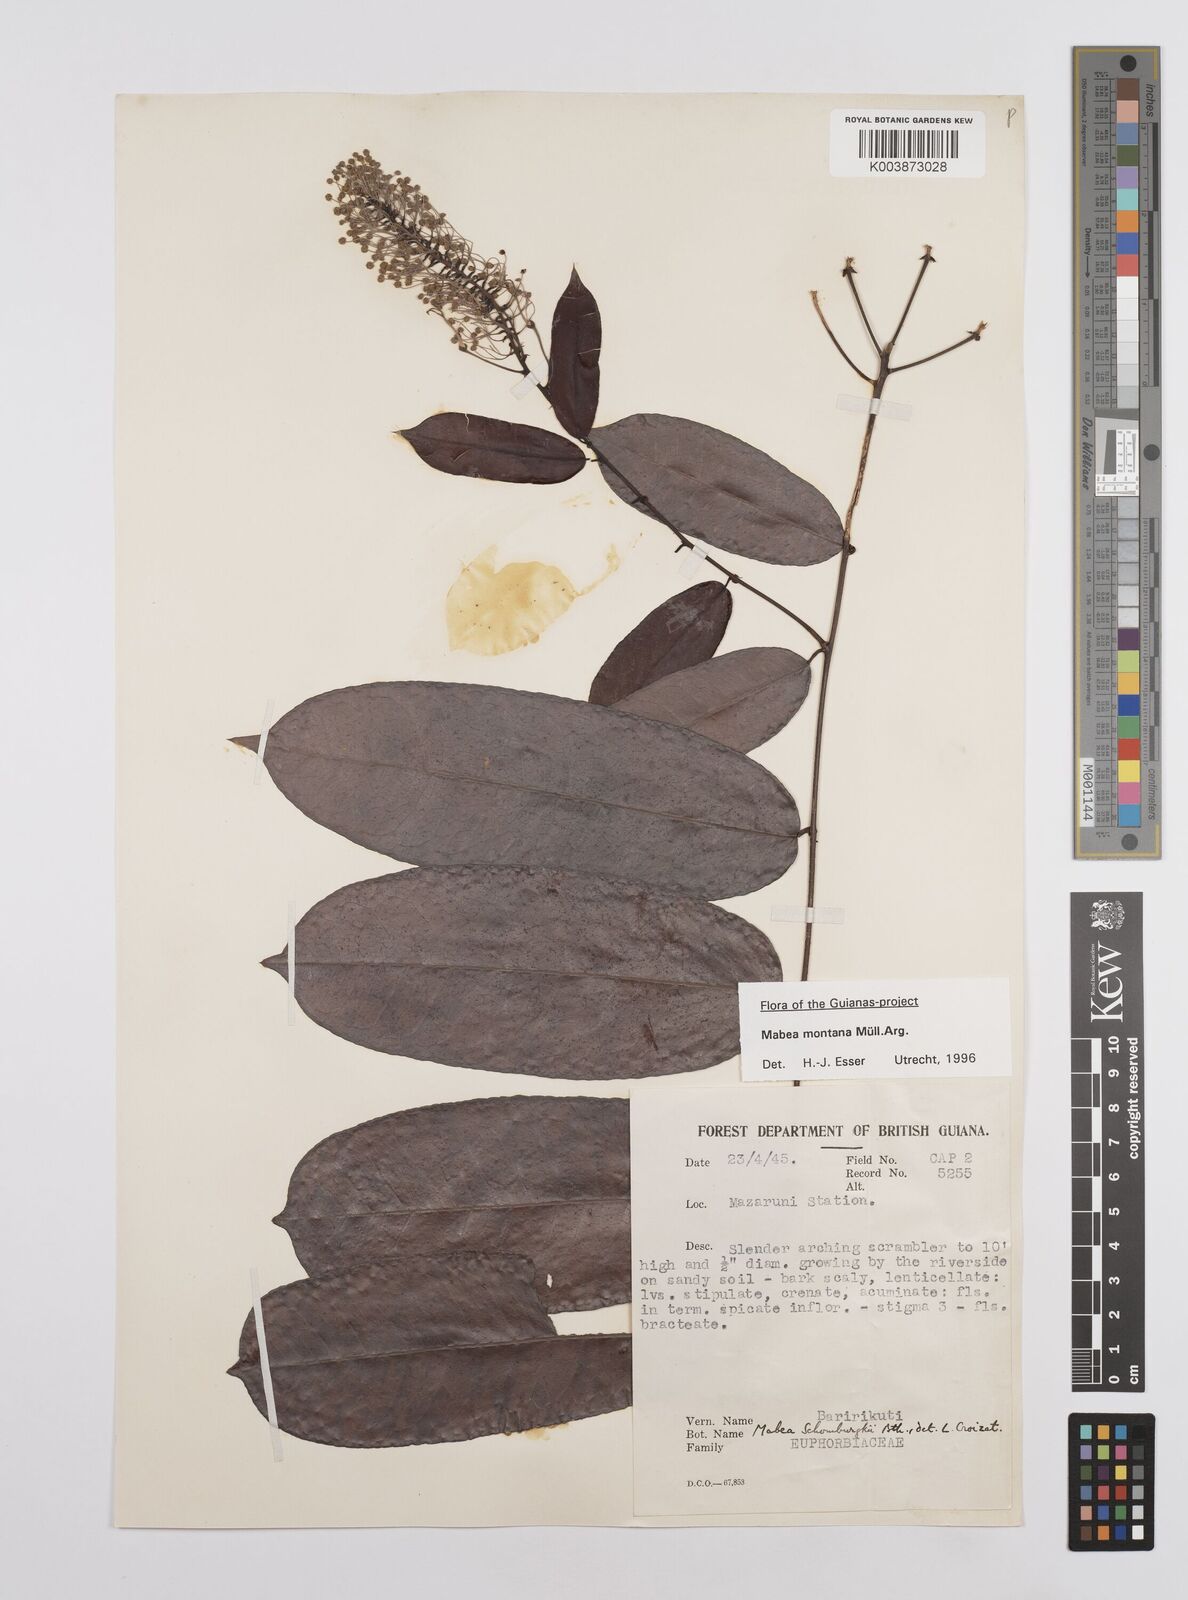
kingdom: Plantae
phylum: Tracheophyta
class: Magnoliopsida
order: Malpighiales
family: Euphorbiaceae
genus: Mabea
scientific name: Mabea montana
